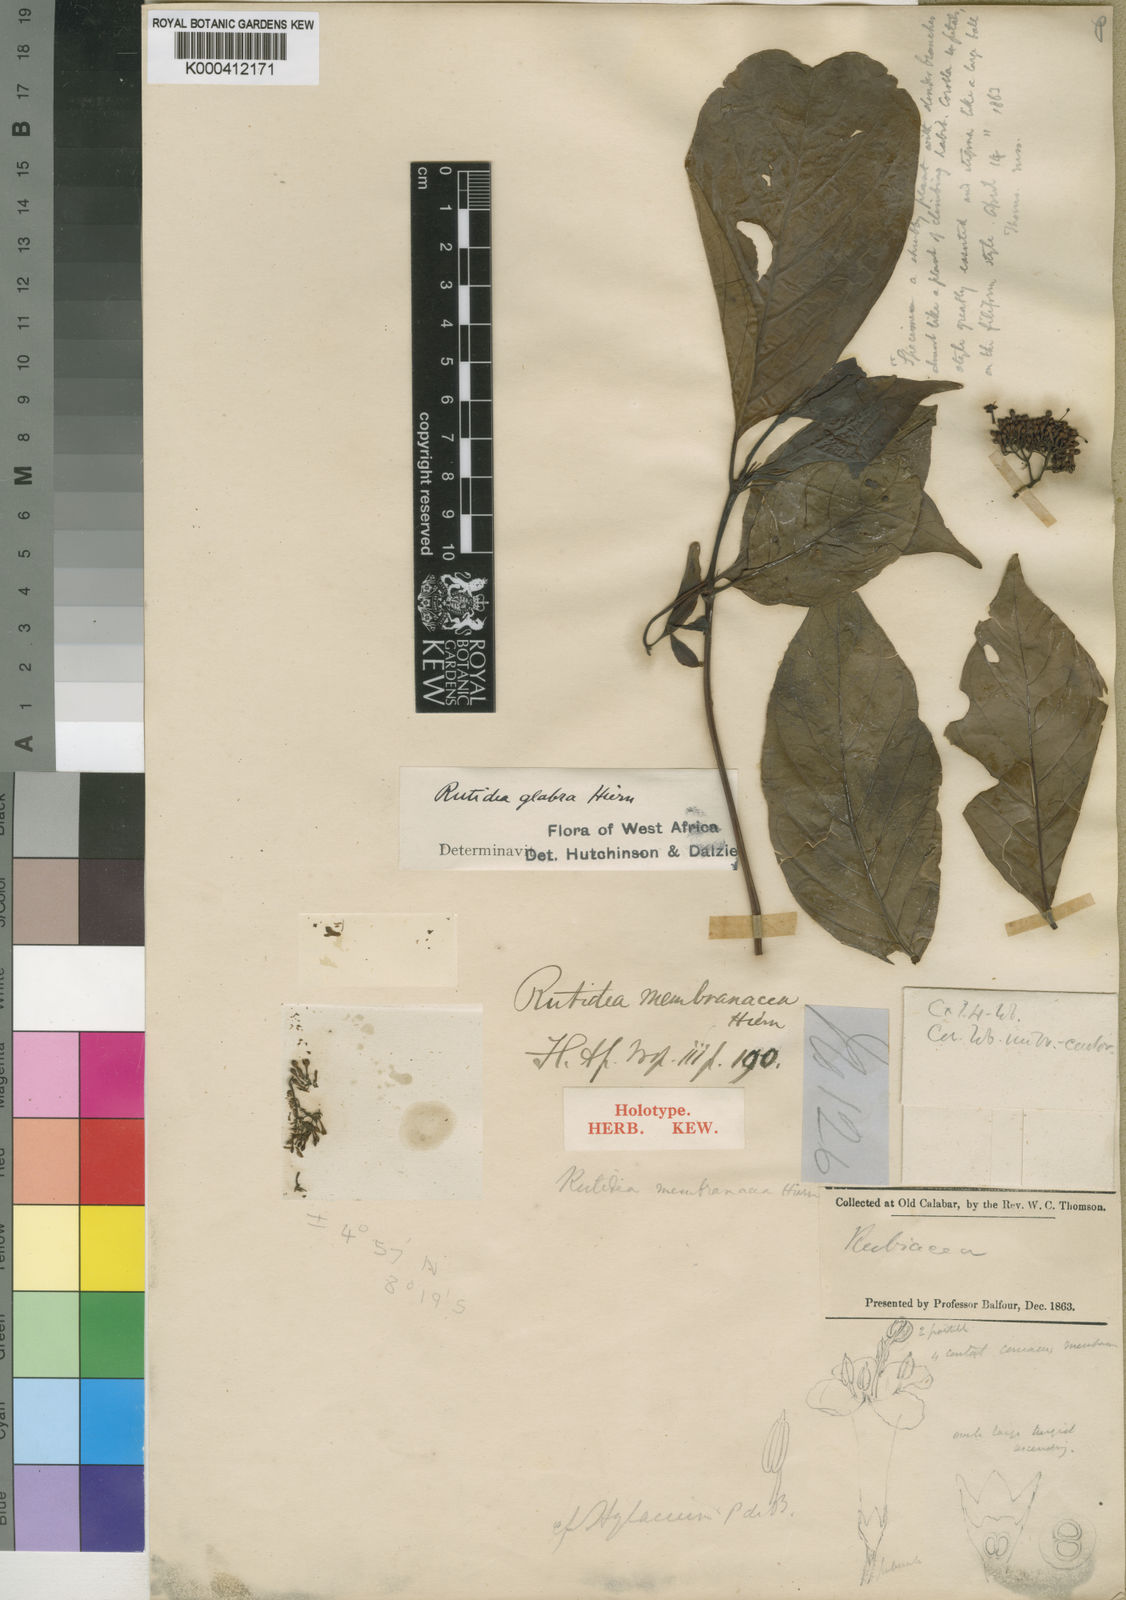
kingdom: Plantae
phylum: Tracheophyta
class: Magnoliopsida
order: Gentianales
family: Rubiaceae
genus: Rutidea
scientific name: Rutidea membranacea
